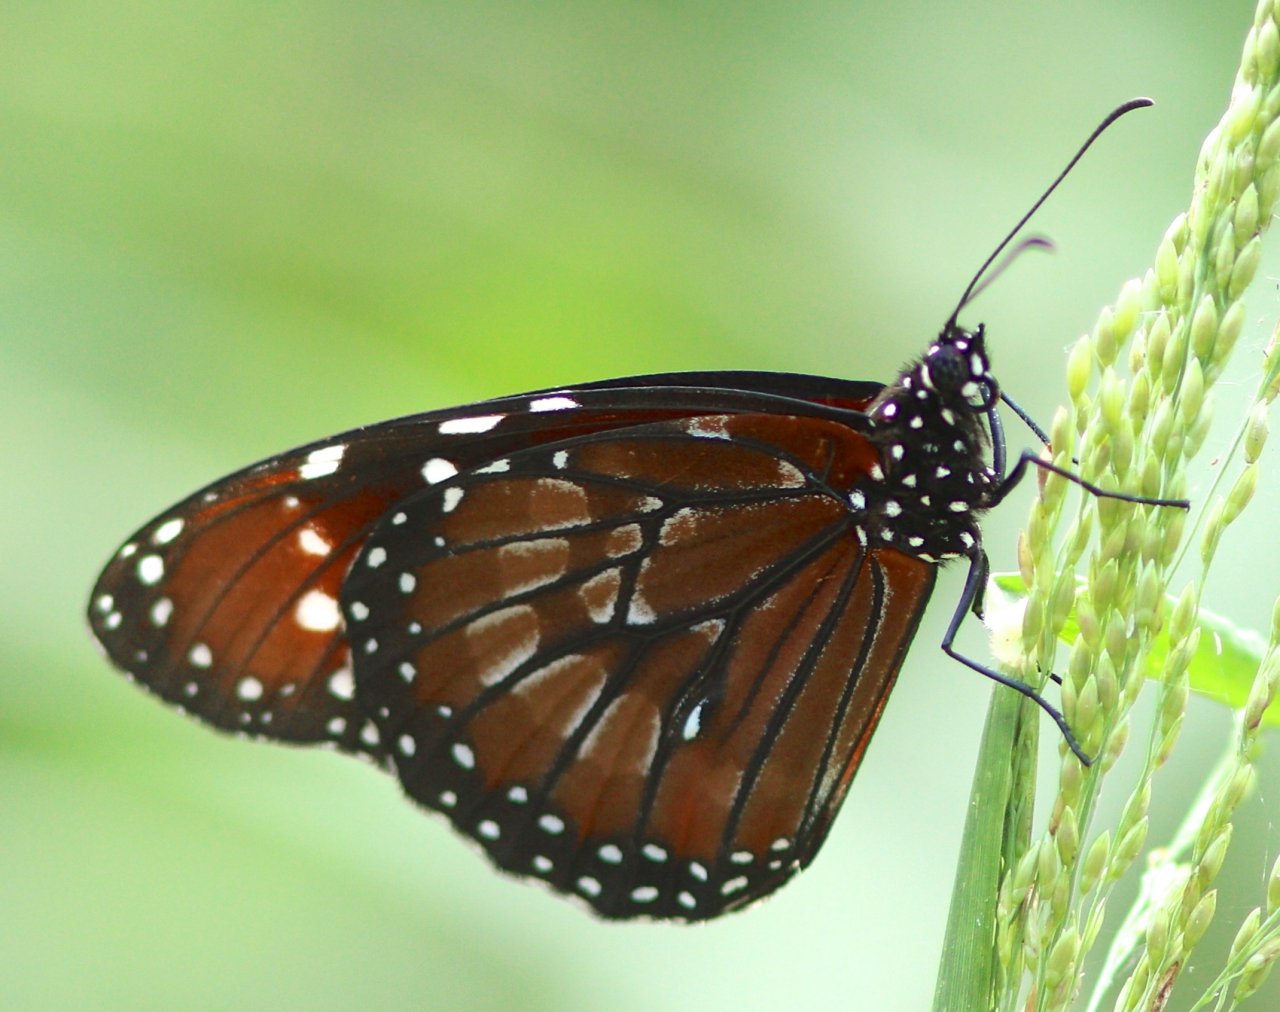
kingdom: Animalia
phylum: Arthropoda
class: Insecta
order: Lepidoptera
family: Nymphalidae
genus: Danaus
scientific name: Danaus eresimus
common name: Soldier
